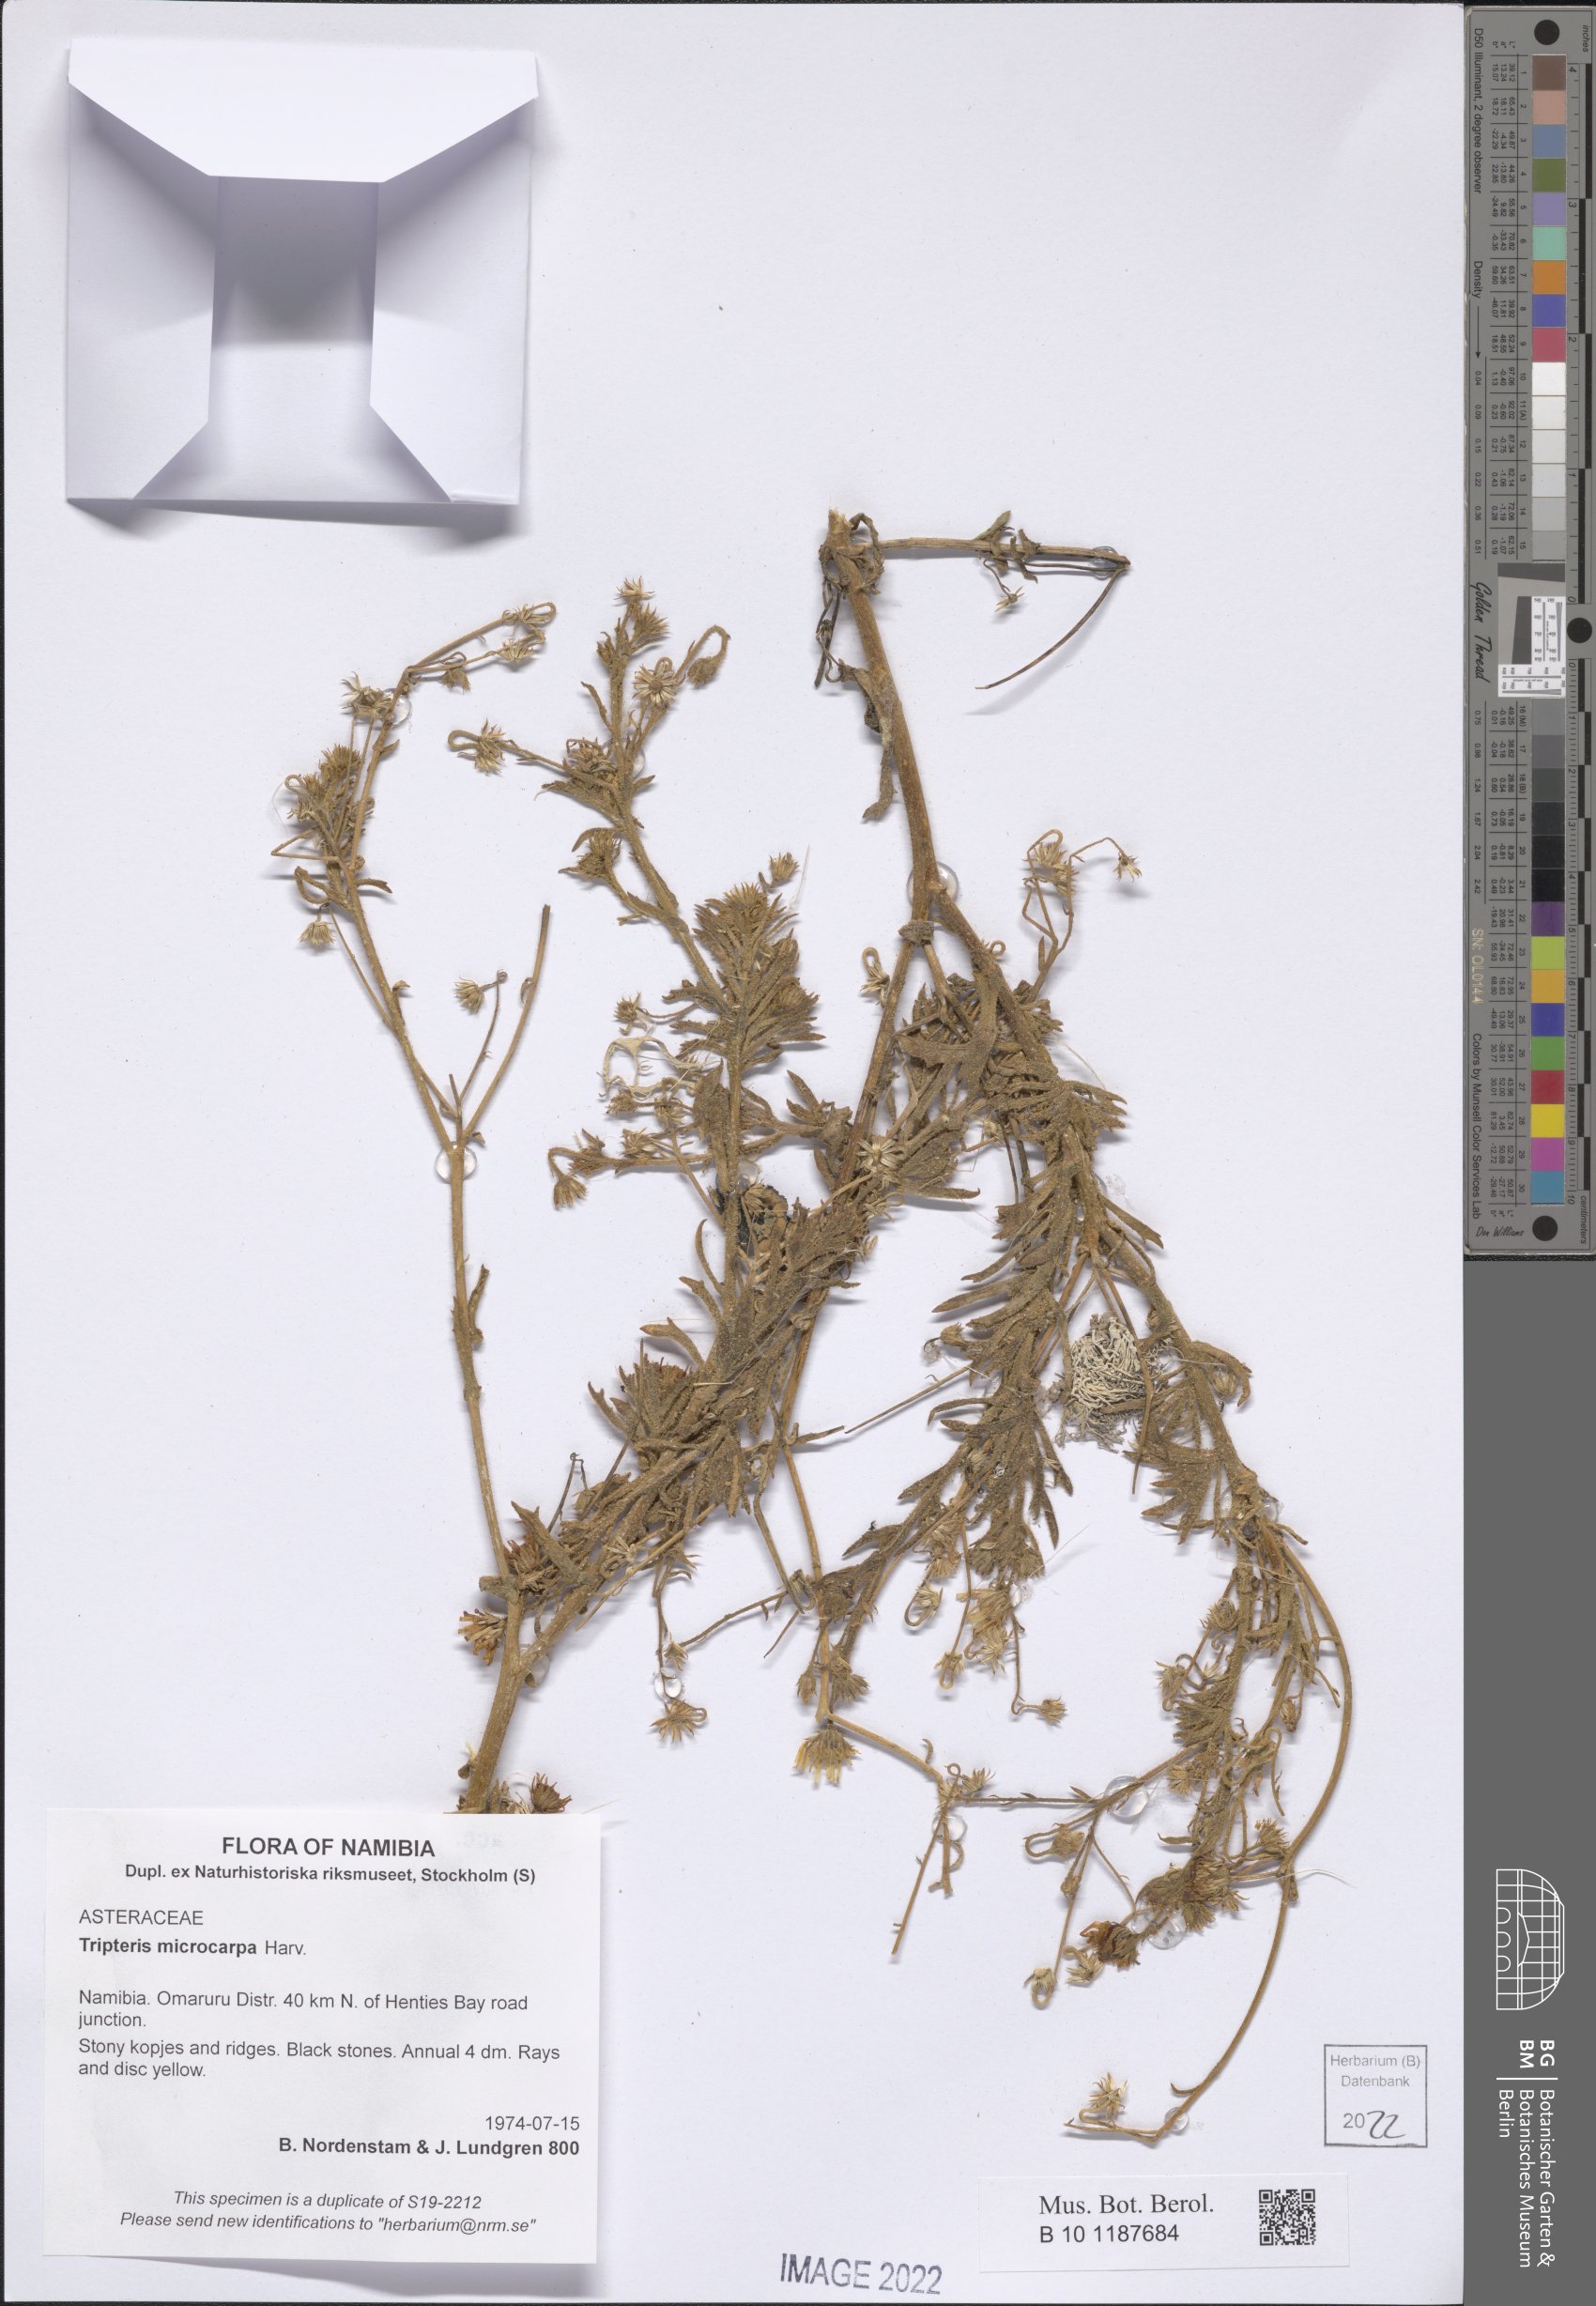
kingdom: Plantae
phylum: Tracheophyta
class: Magnoliopsida
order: Asterales
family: Asteraceae
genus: Osteospermum
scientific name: Osteospermum microcarpum
